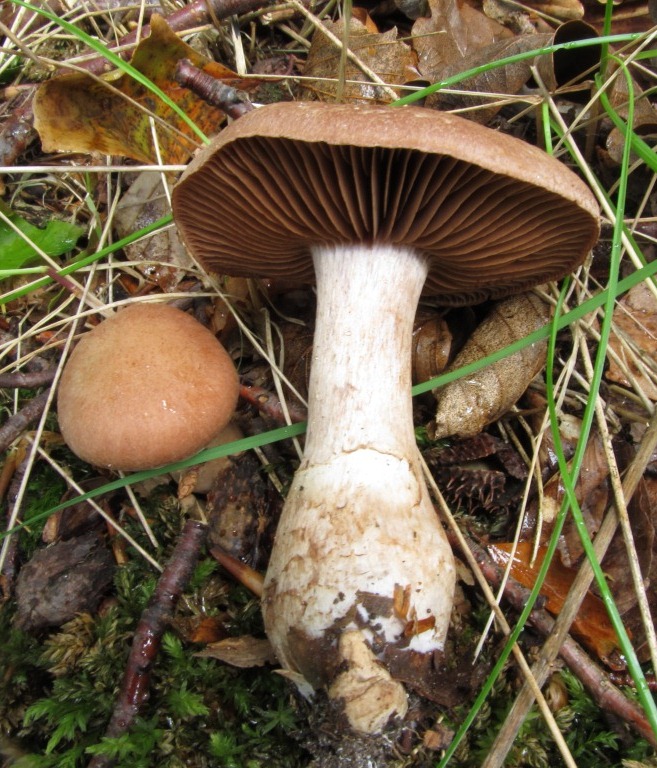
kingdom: Fungi
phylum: Basidiomycota
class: Agaricomycetes
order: Agaricales
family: Cortinariaceae
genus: Cortinarius
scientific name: Cortinarius torvus
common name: champignonagtig slørhat
